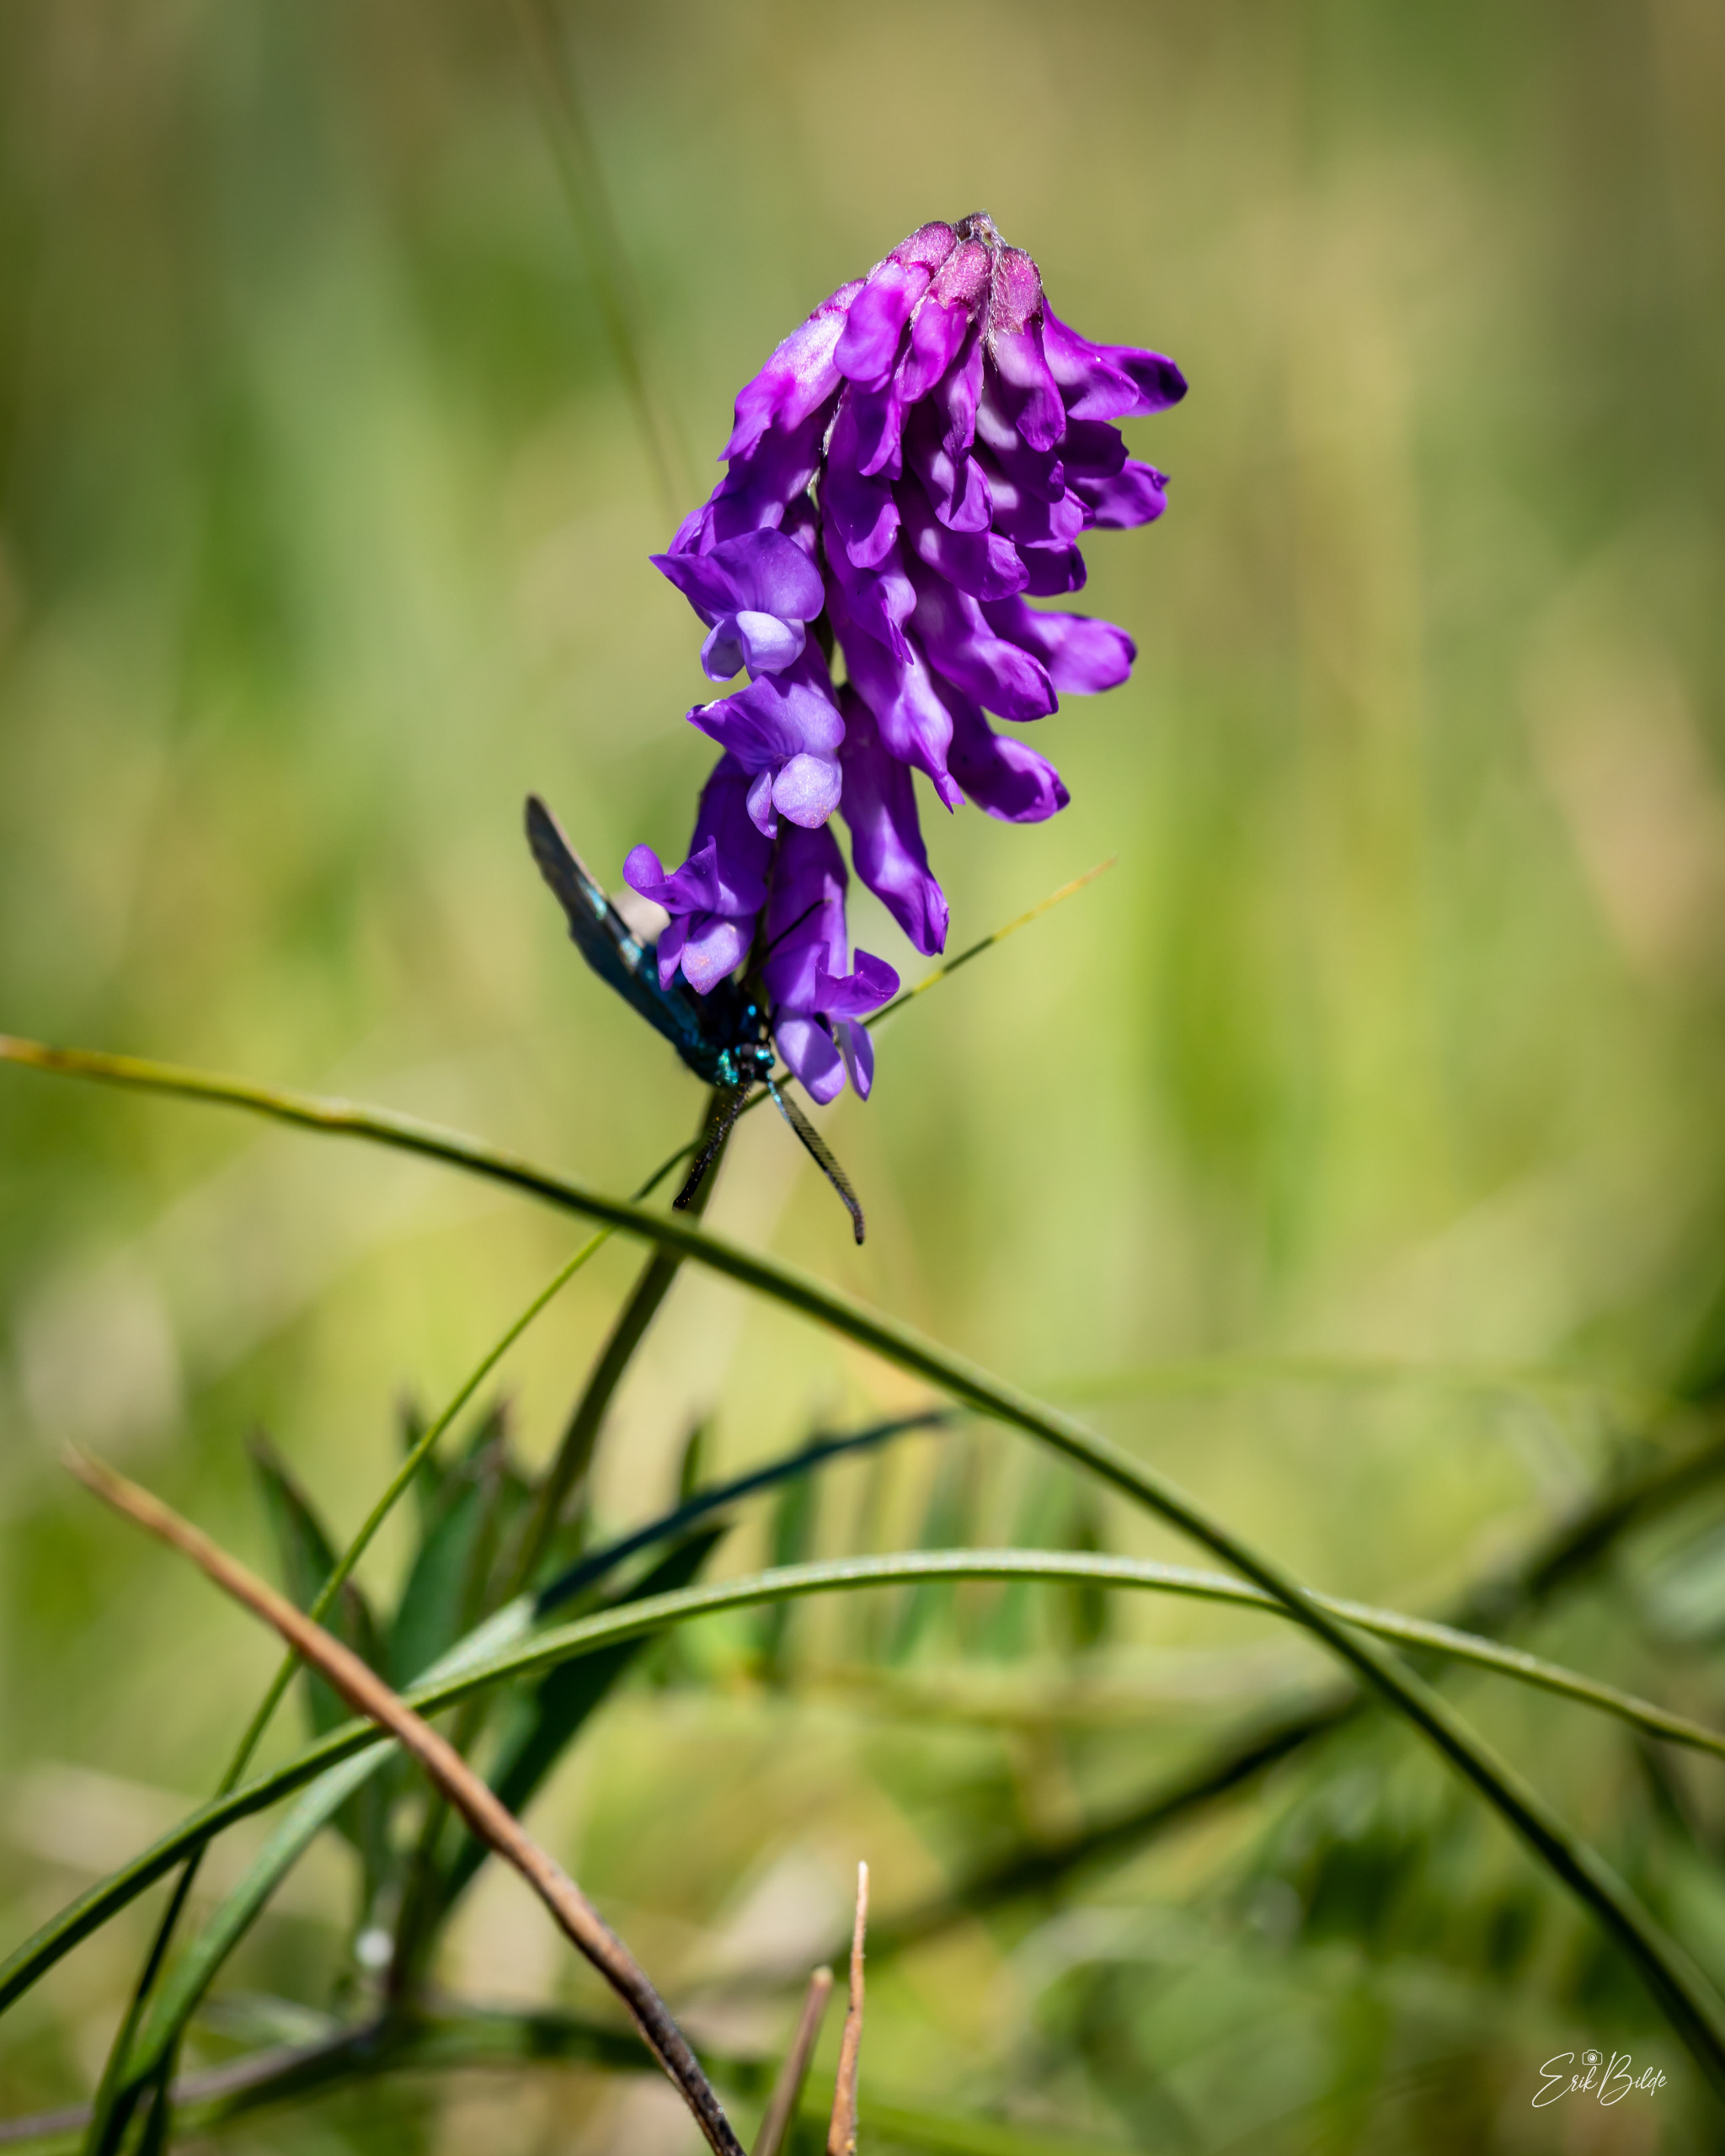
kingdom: Plantae
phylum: Tracheophyta
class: Magnoliopsida
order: Fabales
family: Fabaceae
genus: Vicia
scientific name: Vicia cracca
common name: Muse-vikke
